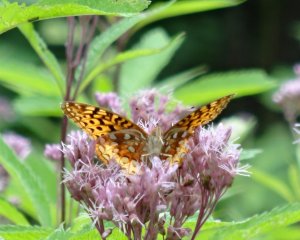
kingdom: Animalia
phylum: Arthropoda
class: Insecta
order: Lepidoptera
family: Nymphalidae
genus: Speyeria
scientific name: Speyeria cybele
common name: Great Spangled Fritillary
